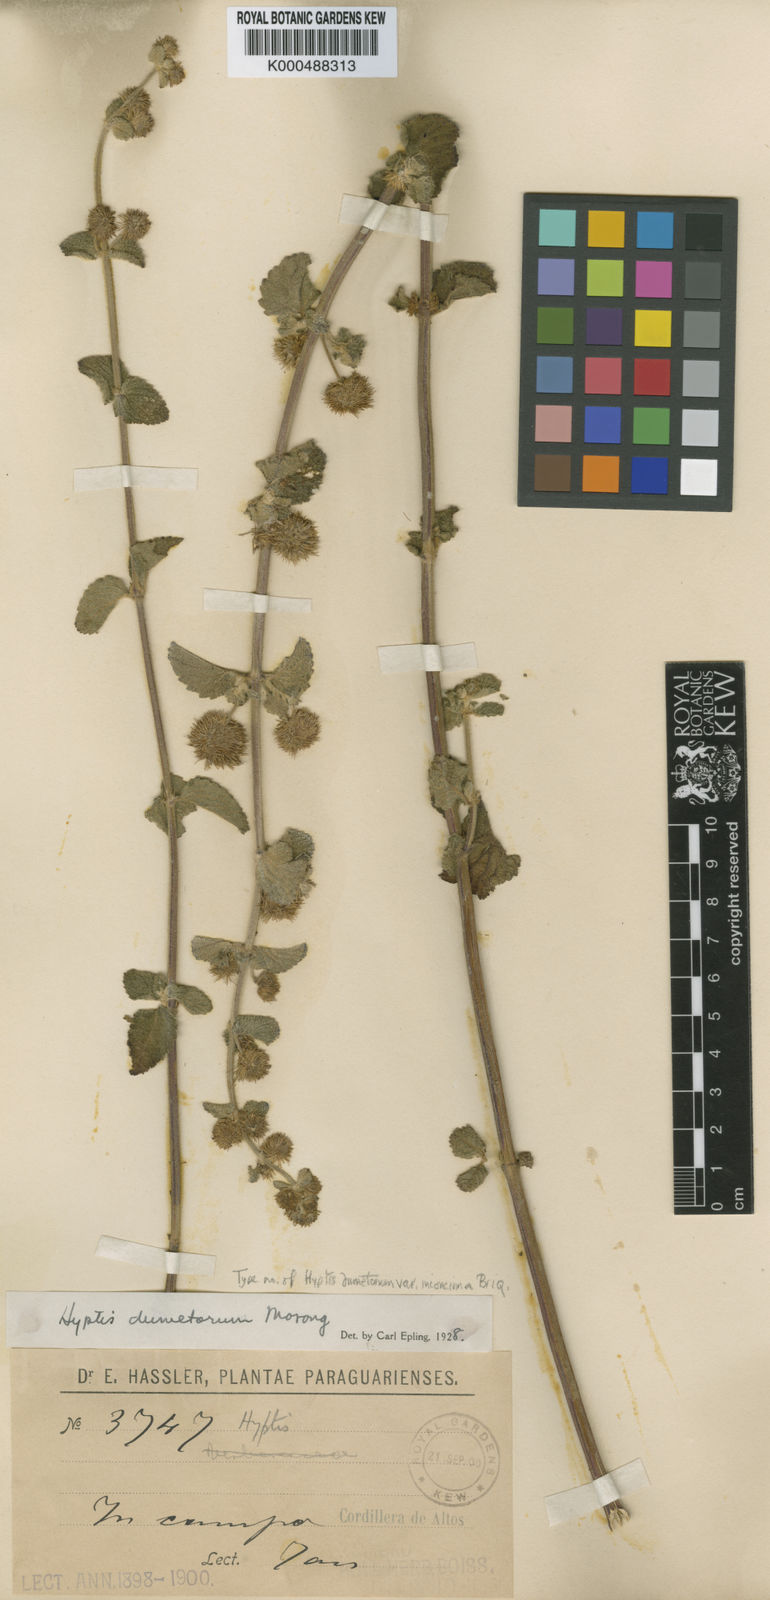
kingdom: Plantae
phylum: Tracheophyta
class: Magnoliopsida
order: Lamiales
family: Lamiaceae
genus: Hyptis
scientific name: Hyptis dumetorum
